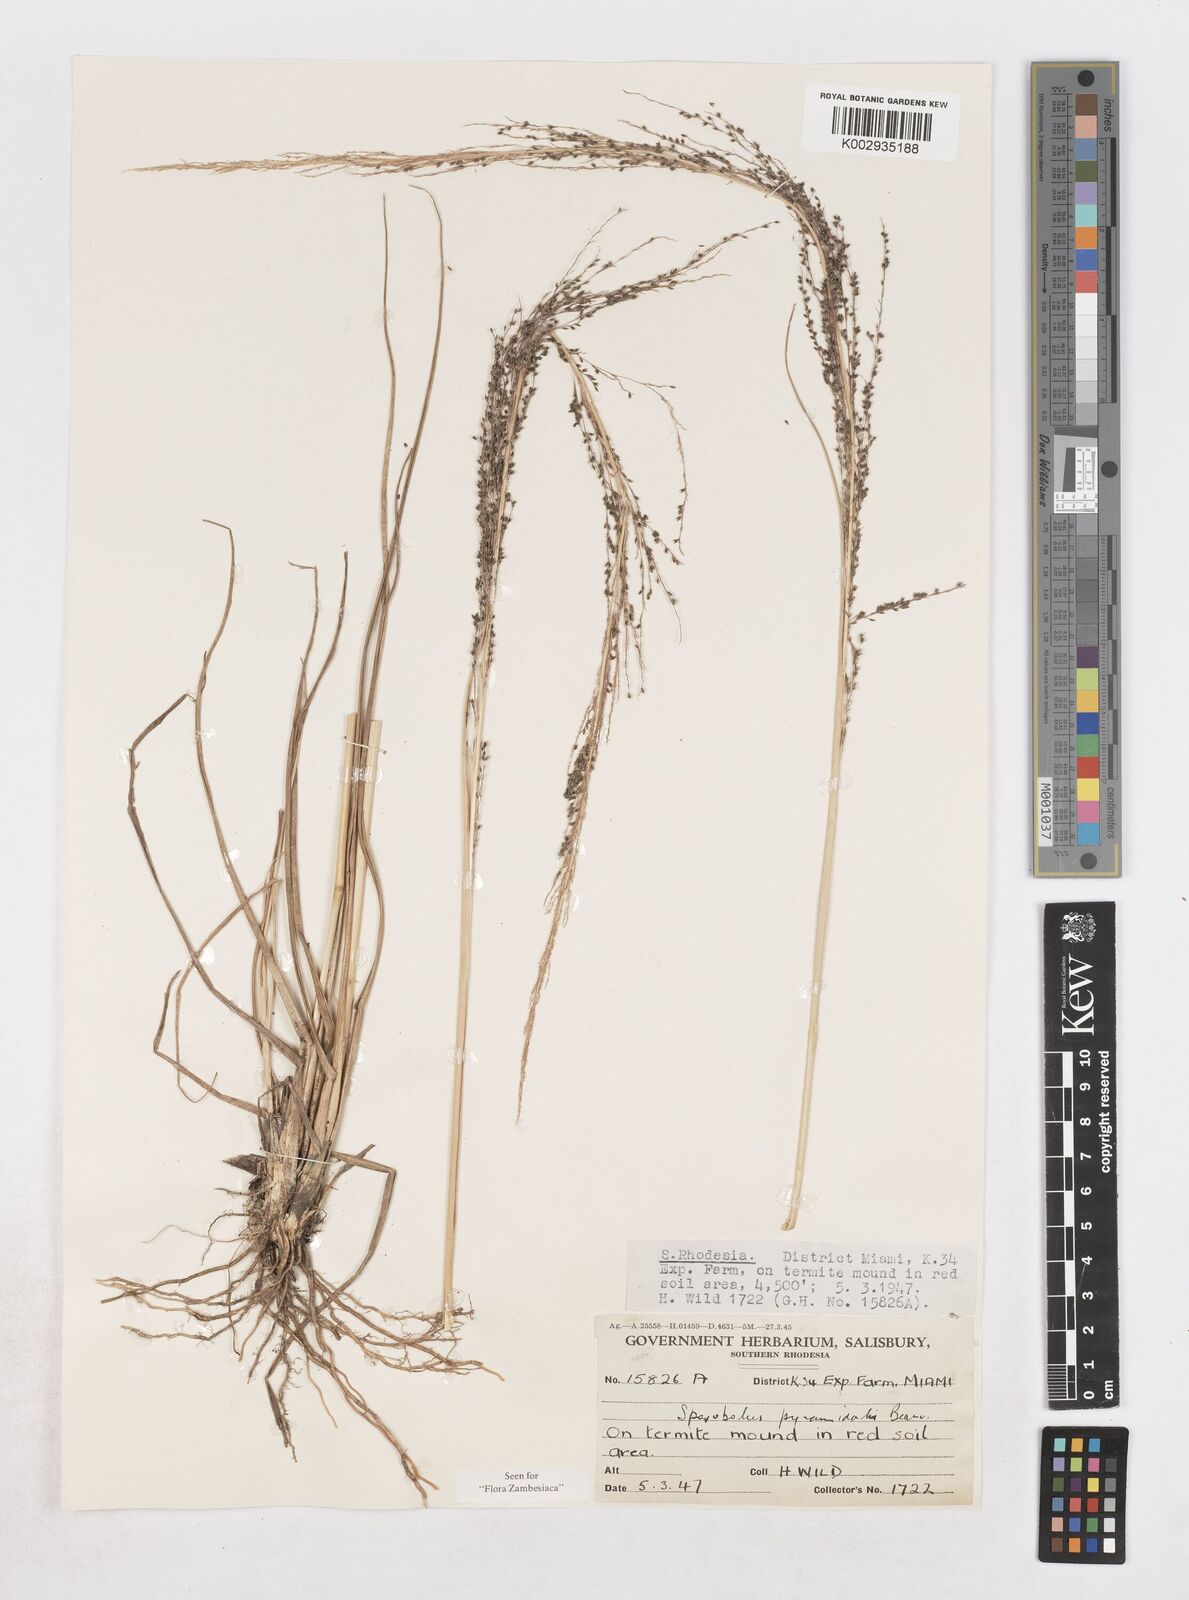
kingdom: Plantae
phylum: Tracheophyta
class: Liliopsida
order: Poales
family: Poaceae
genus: Sporobolus
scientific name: Sporobolus pyramidalis
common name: West indian dropseed
